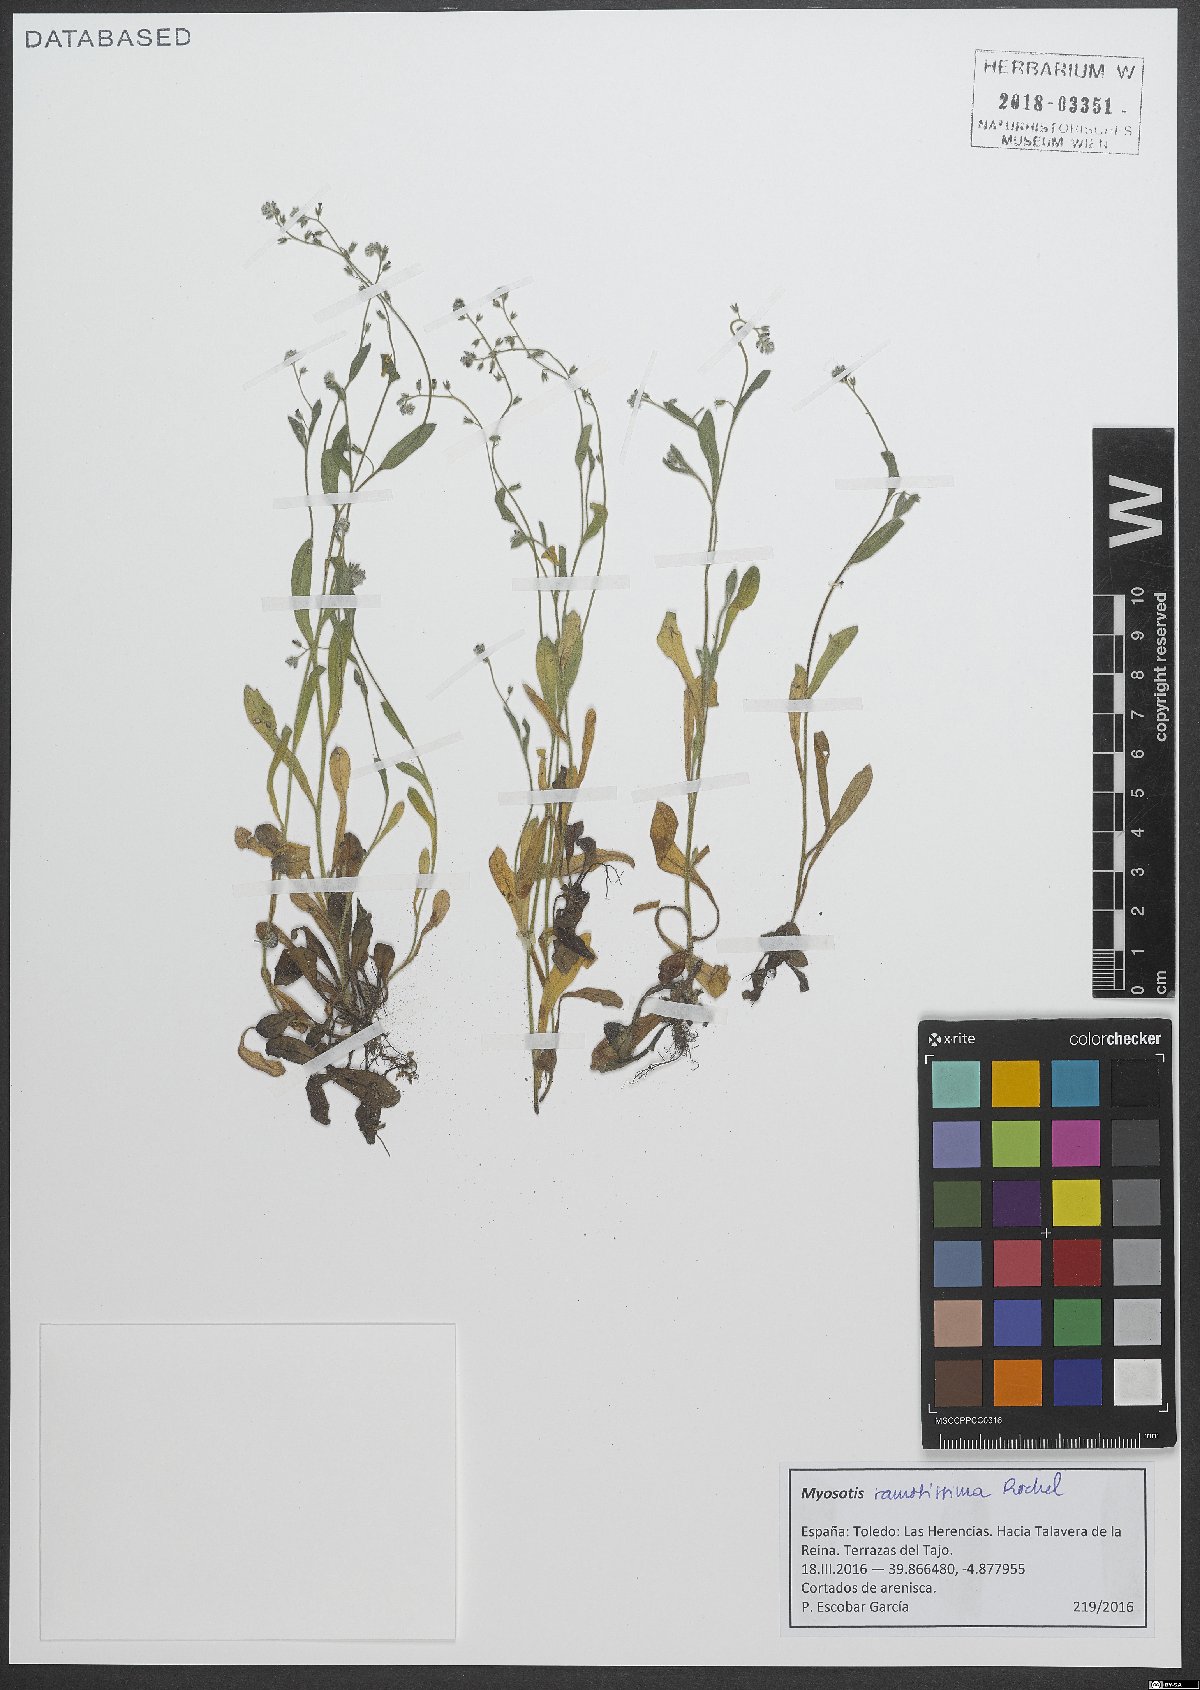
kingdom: Plantae
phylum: Tracheophyta
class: Magnoliopsida
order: Boraginales
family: Boraginaceae
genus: Myosotis
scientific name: Myosotis ramosissima
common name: Early forget-me-not
